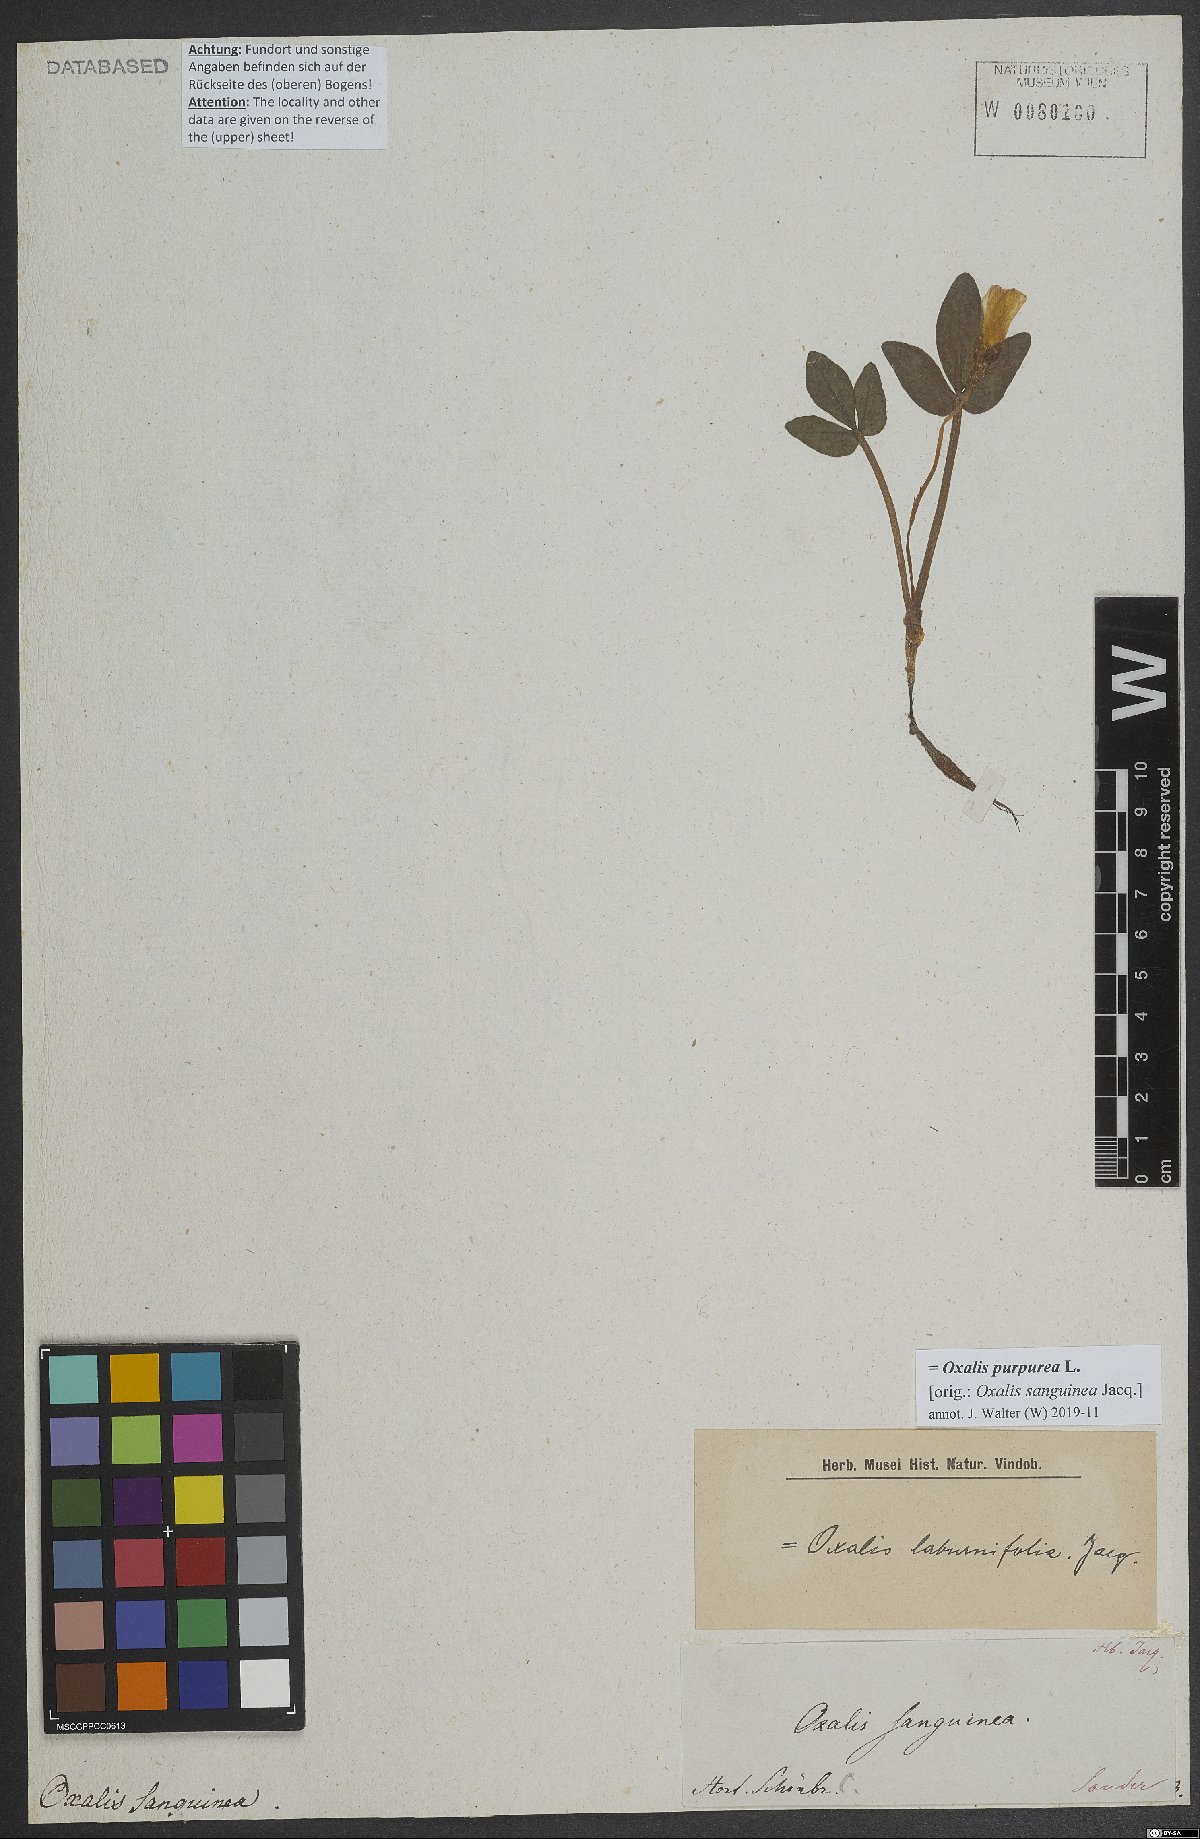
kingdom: Plantae
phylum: Tracheophyta
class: Magnoliopsida
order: Oxalidales
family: Oxalidaceae
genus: Oxalis
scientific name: Oxalis purpurea
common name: Purple woodsorrel
